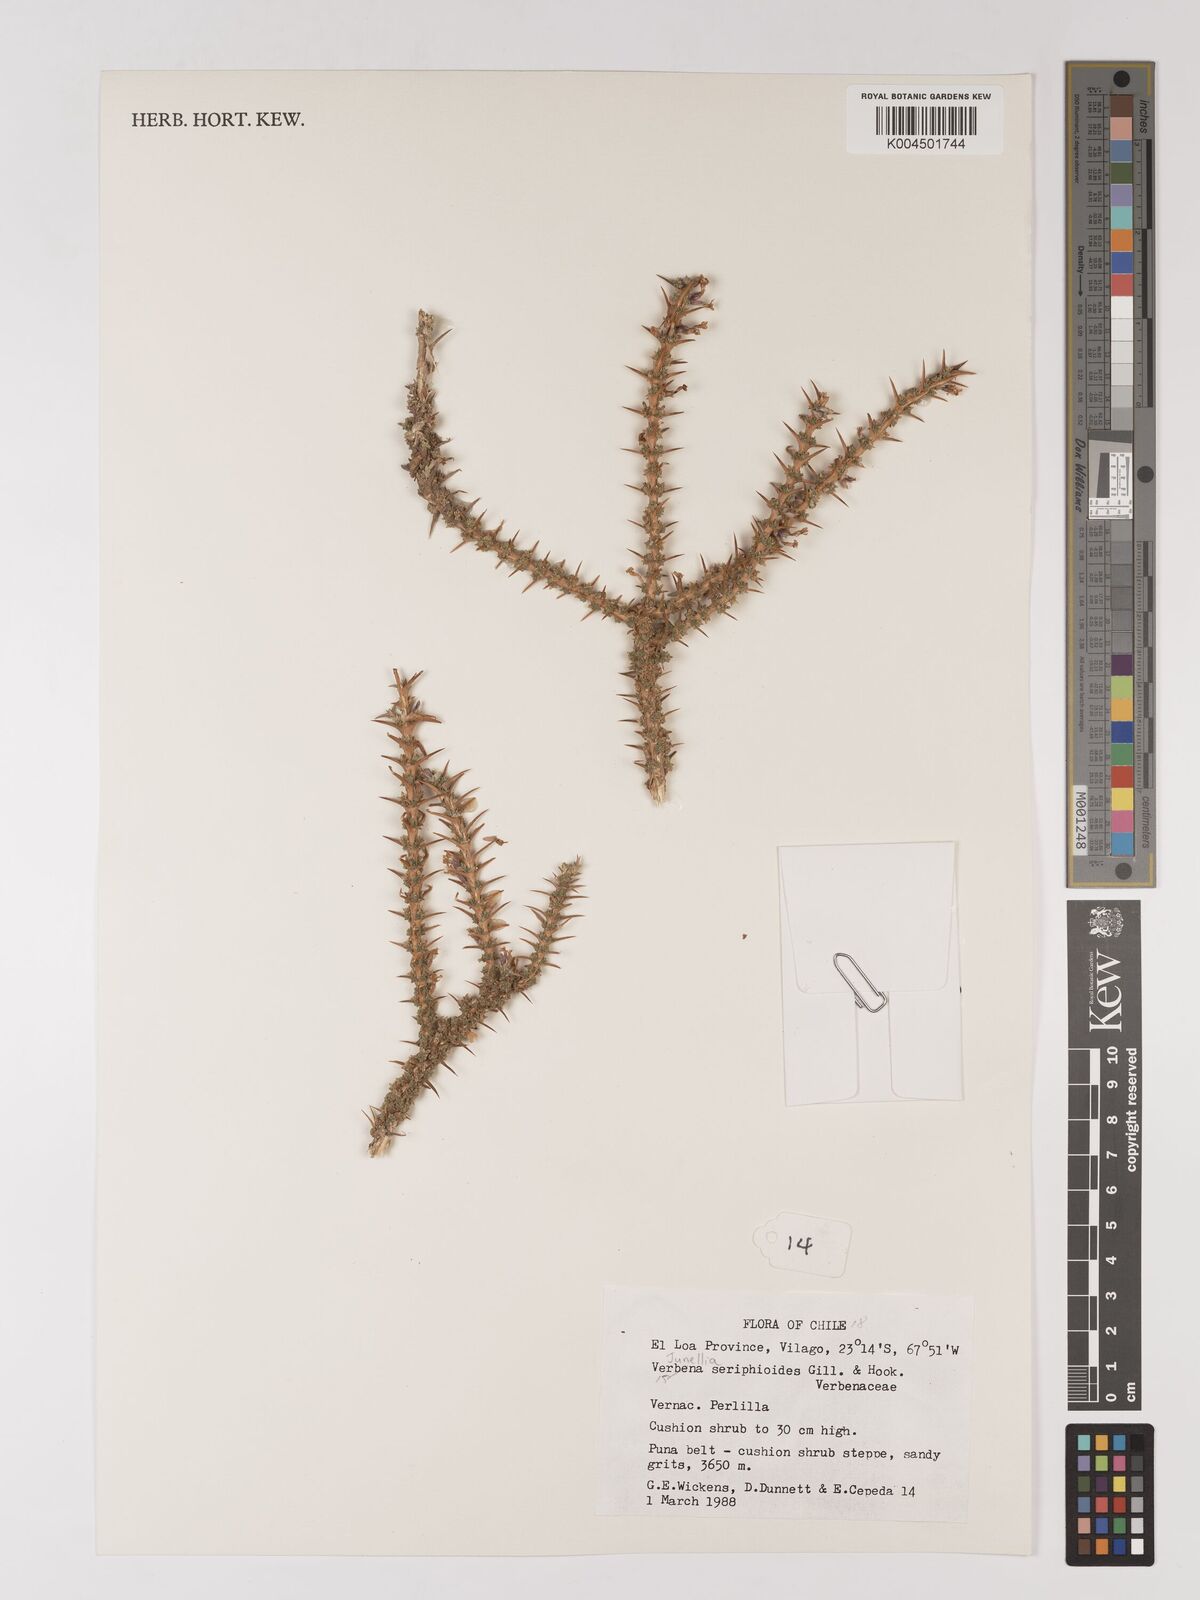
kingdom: Plantae
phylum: Tracheophyta
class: Magnoliopsida
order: Lamiales
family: Verbenaceae
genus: Junellia
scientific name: Junellia seriphioides
